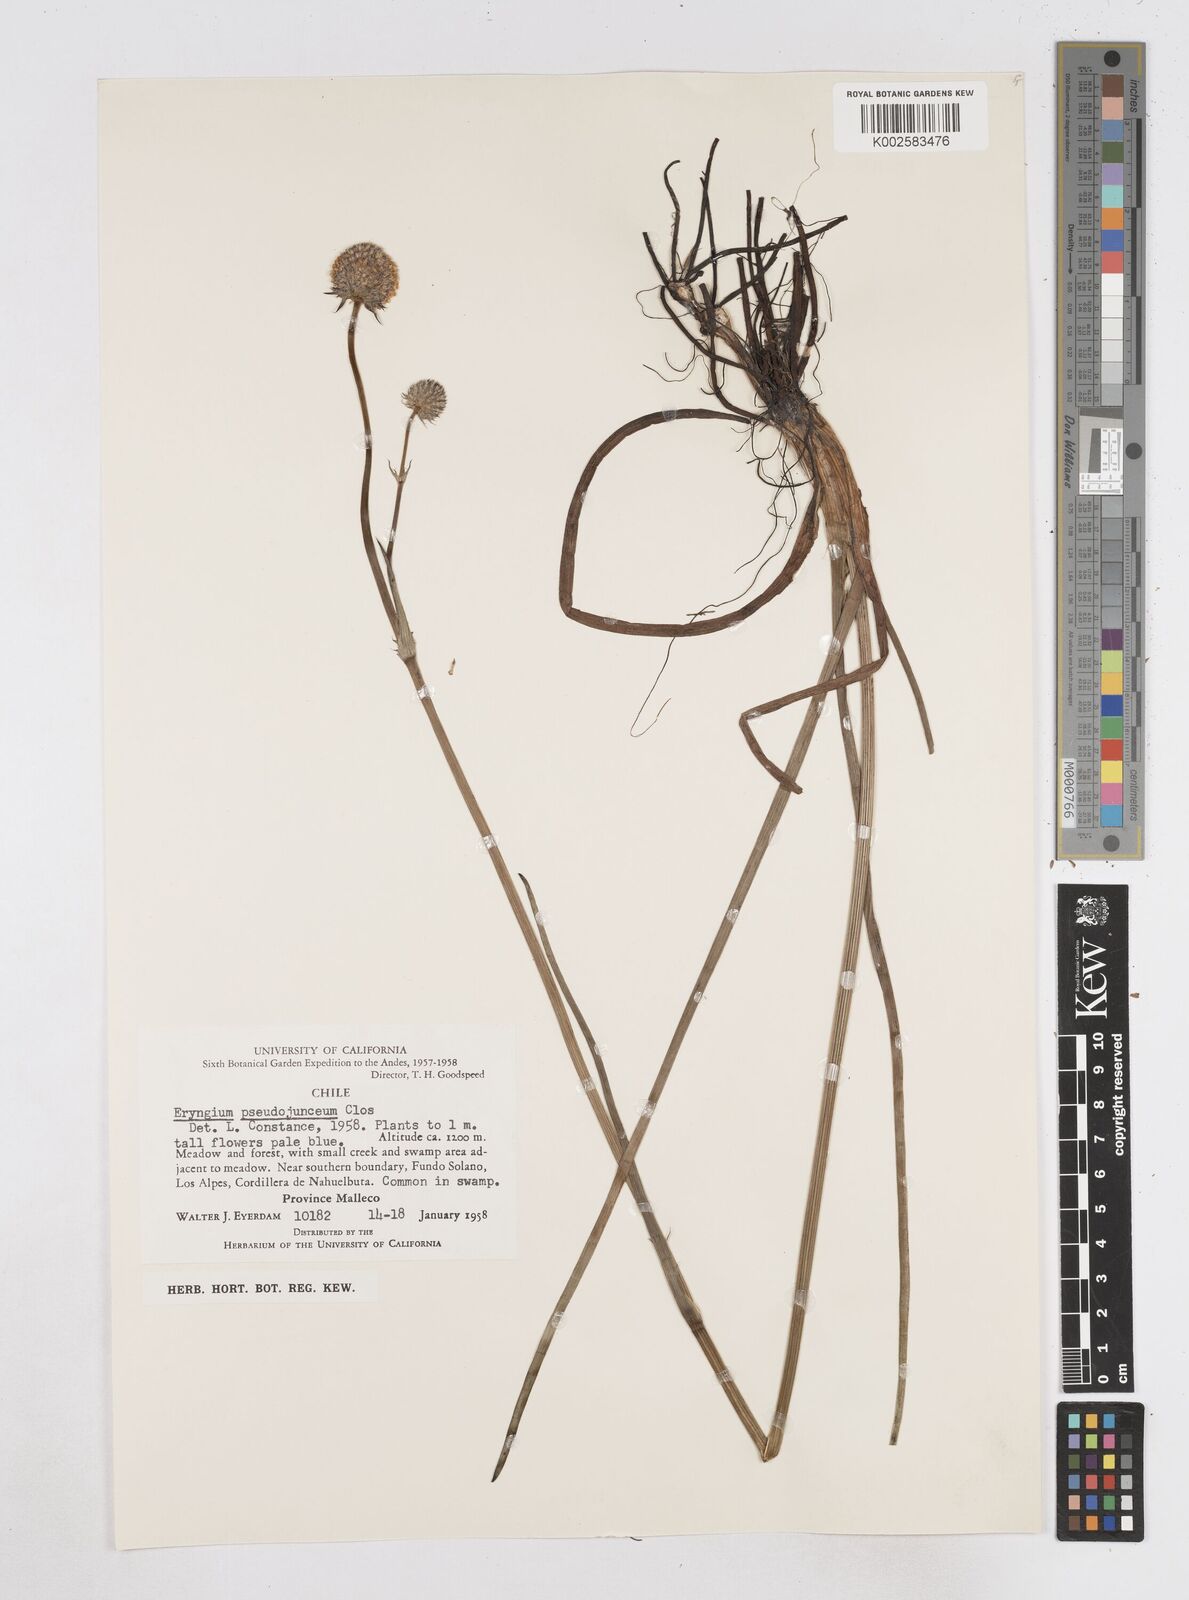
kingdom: Plantae
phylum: Tracheophyta
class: Magnoliopsida
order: Apiales
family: Apiaceae
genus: Eryngium
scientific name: Eryngium pseudojunceum
